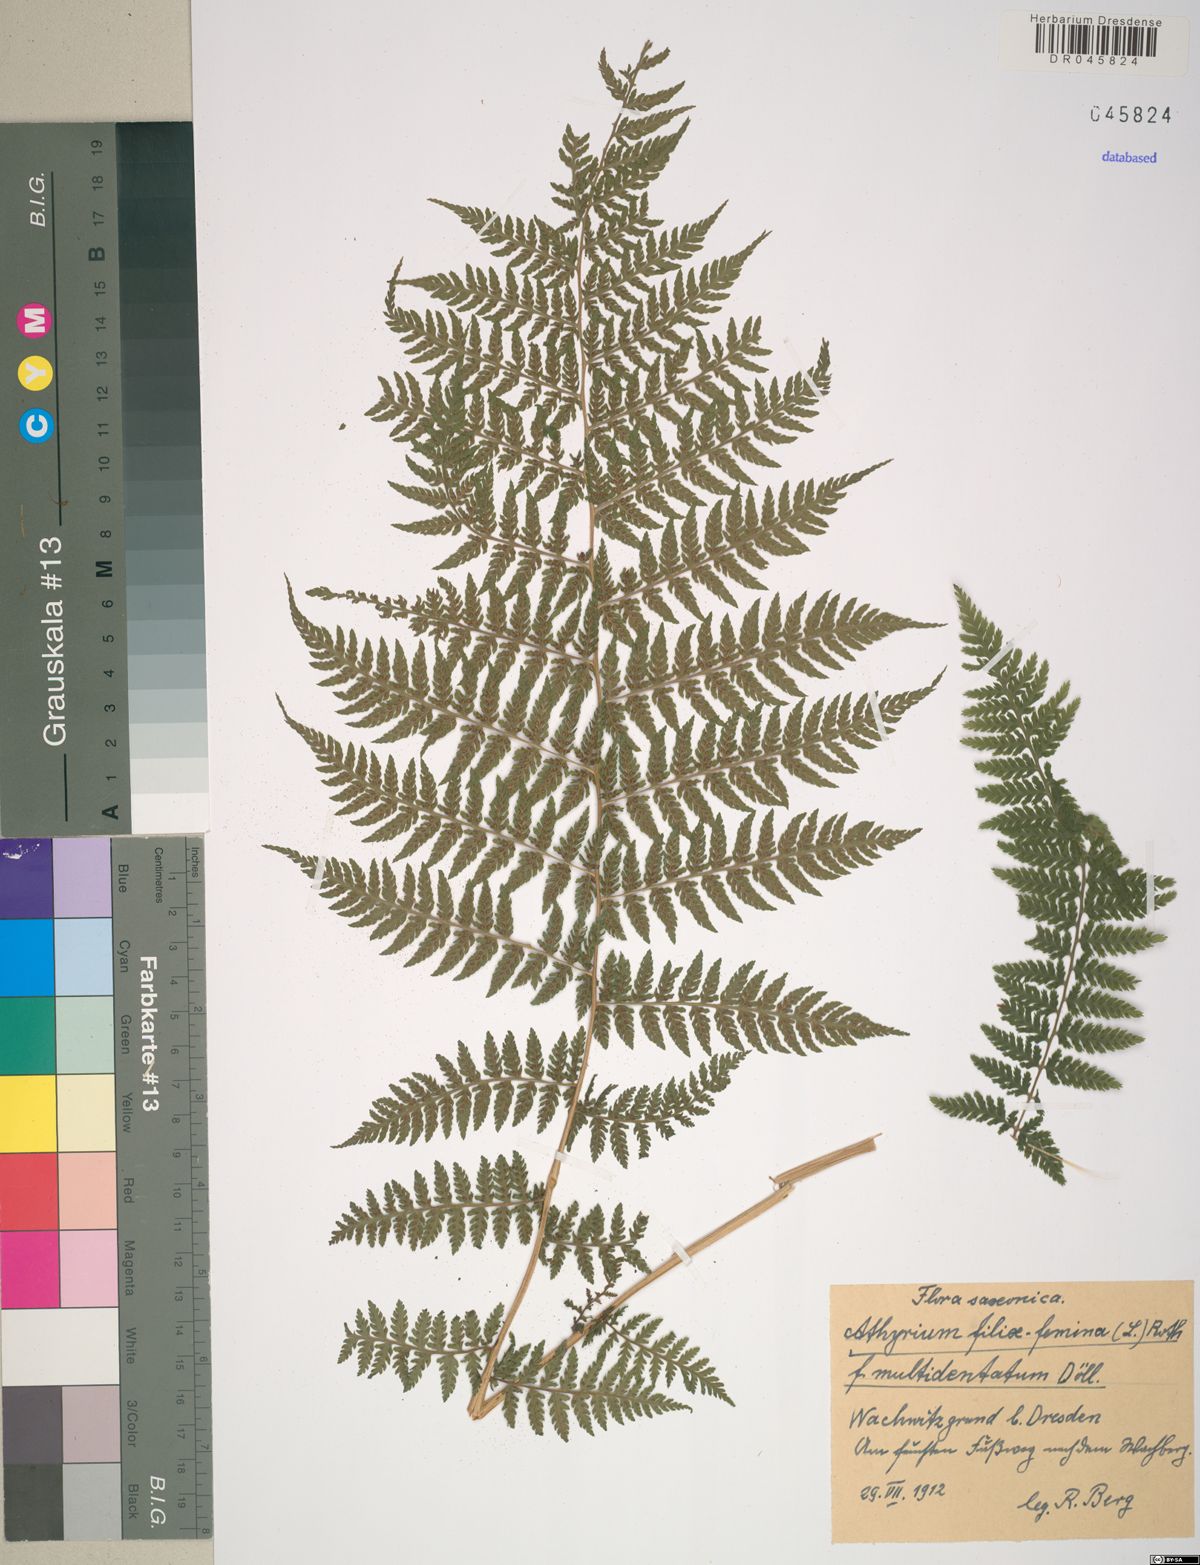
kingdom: Plantae
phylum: Tracheophyta
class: Polypodiopsida
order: Polypodiales
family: Athyriaceae
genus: Athyrium
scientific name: Athyrium filix-femina
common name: Lady fern
